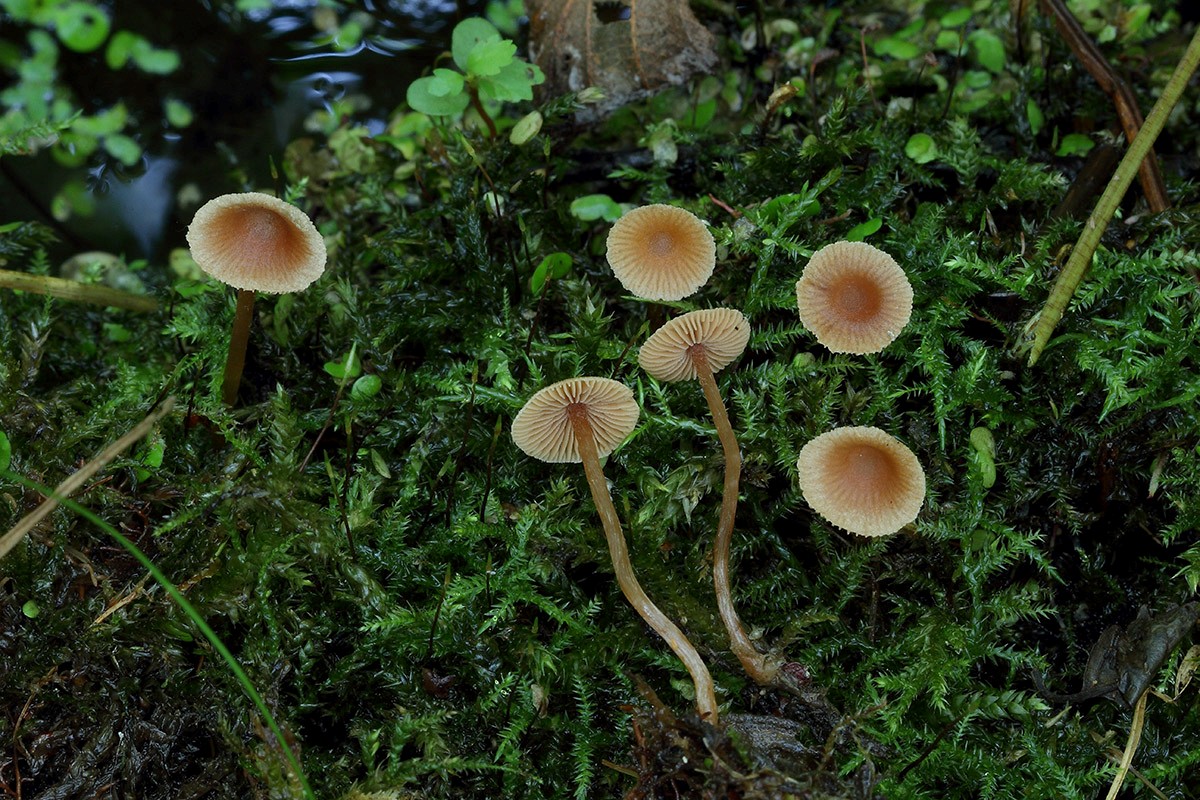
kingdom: Fungi
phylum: Basidiomycota
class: Agaricomycetes
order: Agaricales
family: Hymenogastraceae
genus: Naucoria
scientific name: Naucoria celluloderma
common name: enlig knaphat
